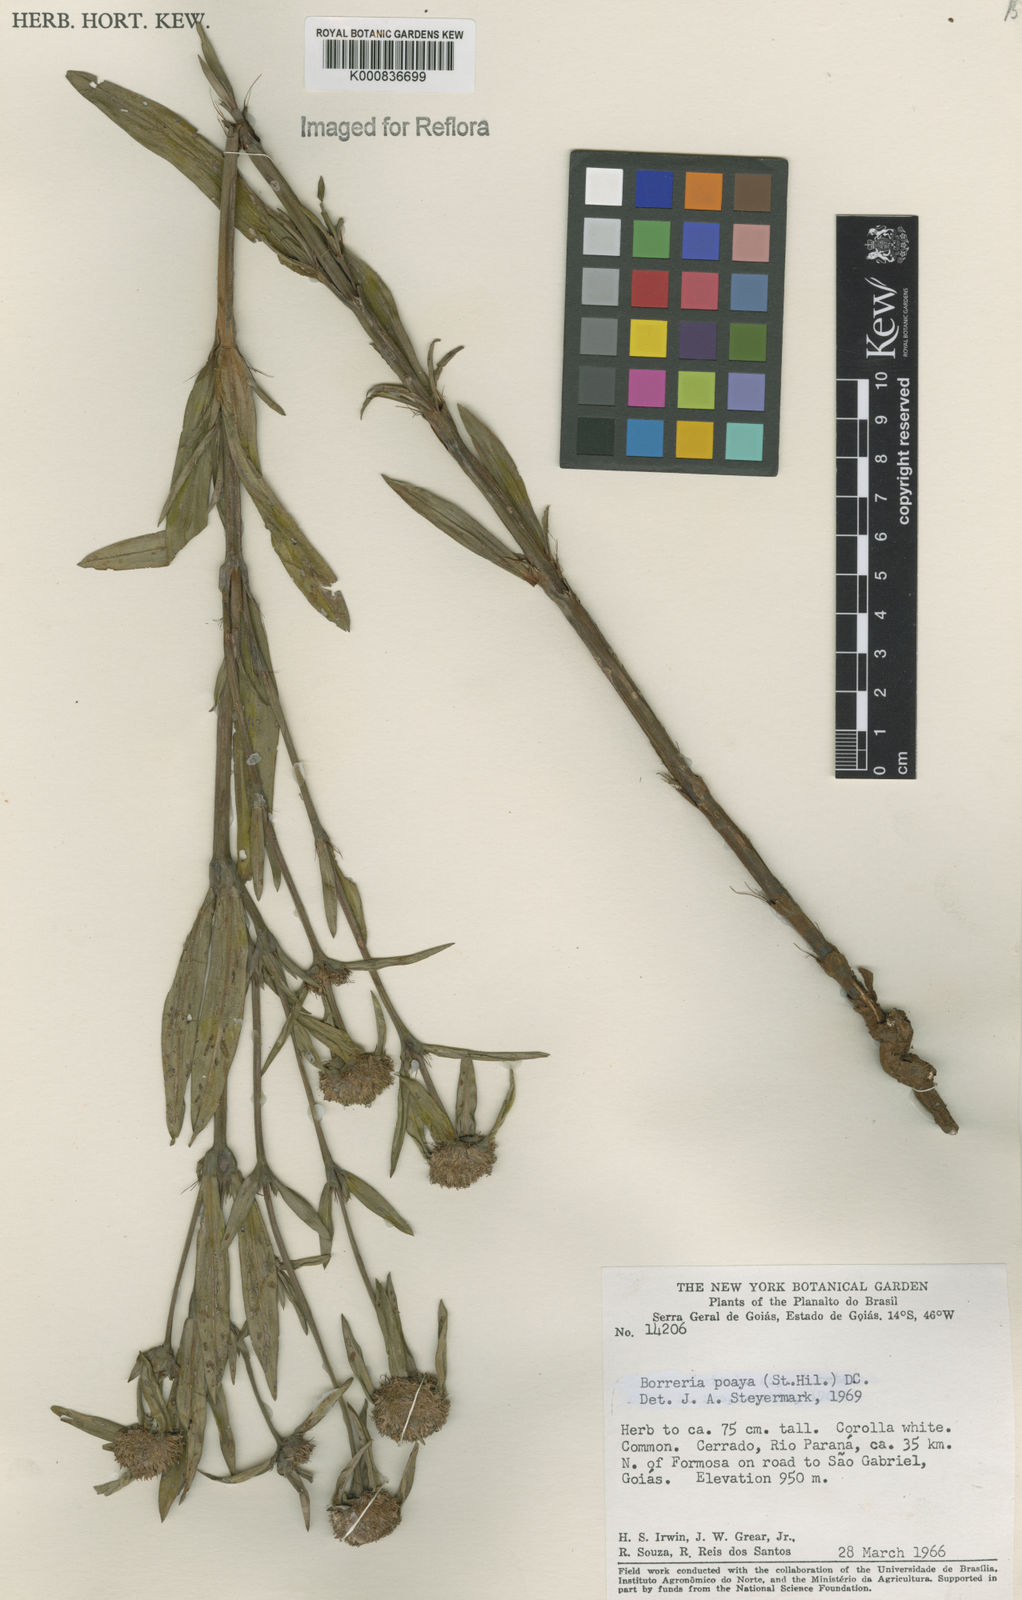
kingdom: Plantae
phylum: Tracheophyta
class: Magnoliopsida
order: Gentianales
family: Rubiaceae
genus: Spermacoce
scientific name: Spermacoce poaya
